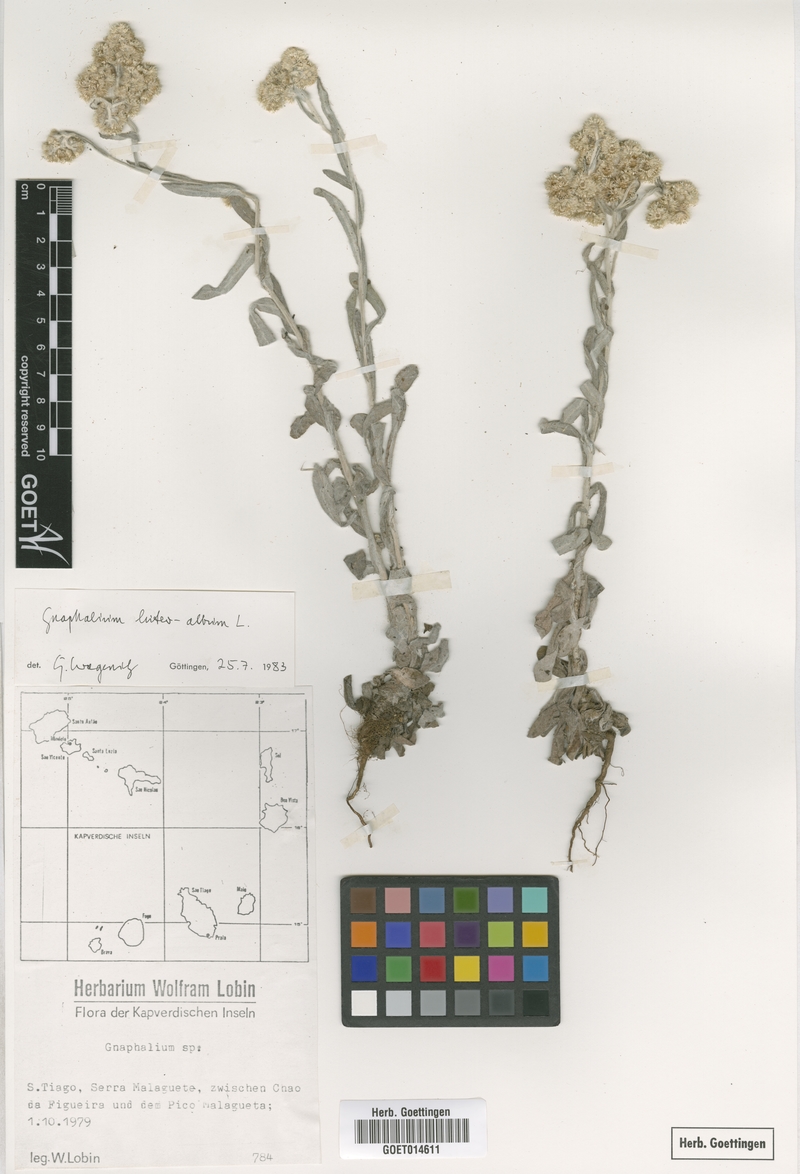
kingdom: Plantae
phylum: Tracheophyta
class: Magnoliopsida
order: Asterales
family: Asteraceae
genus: Helichrysum
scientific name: Helichrysum luteoalbum
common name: Daisy
